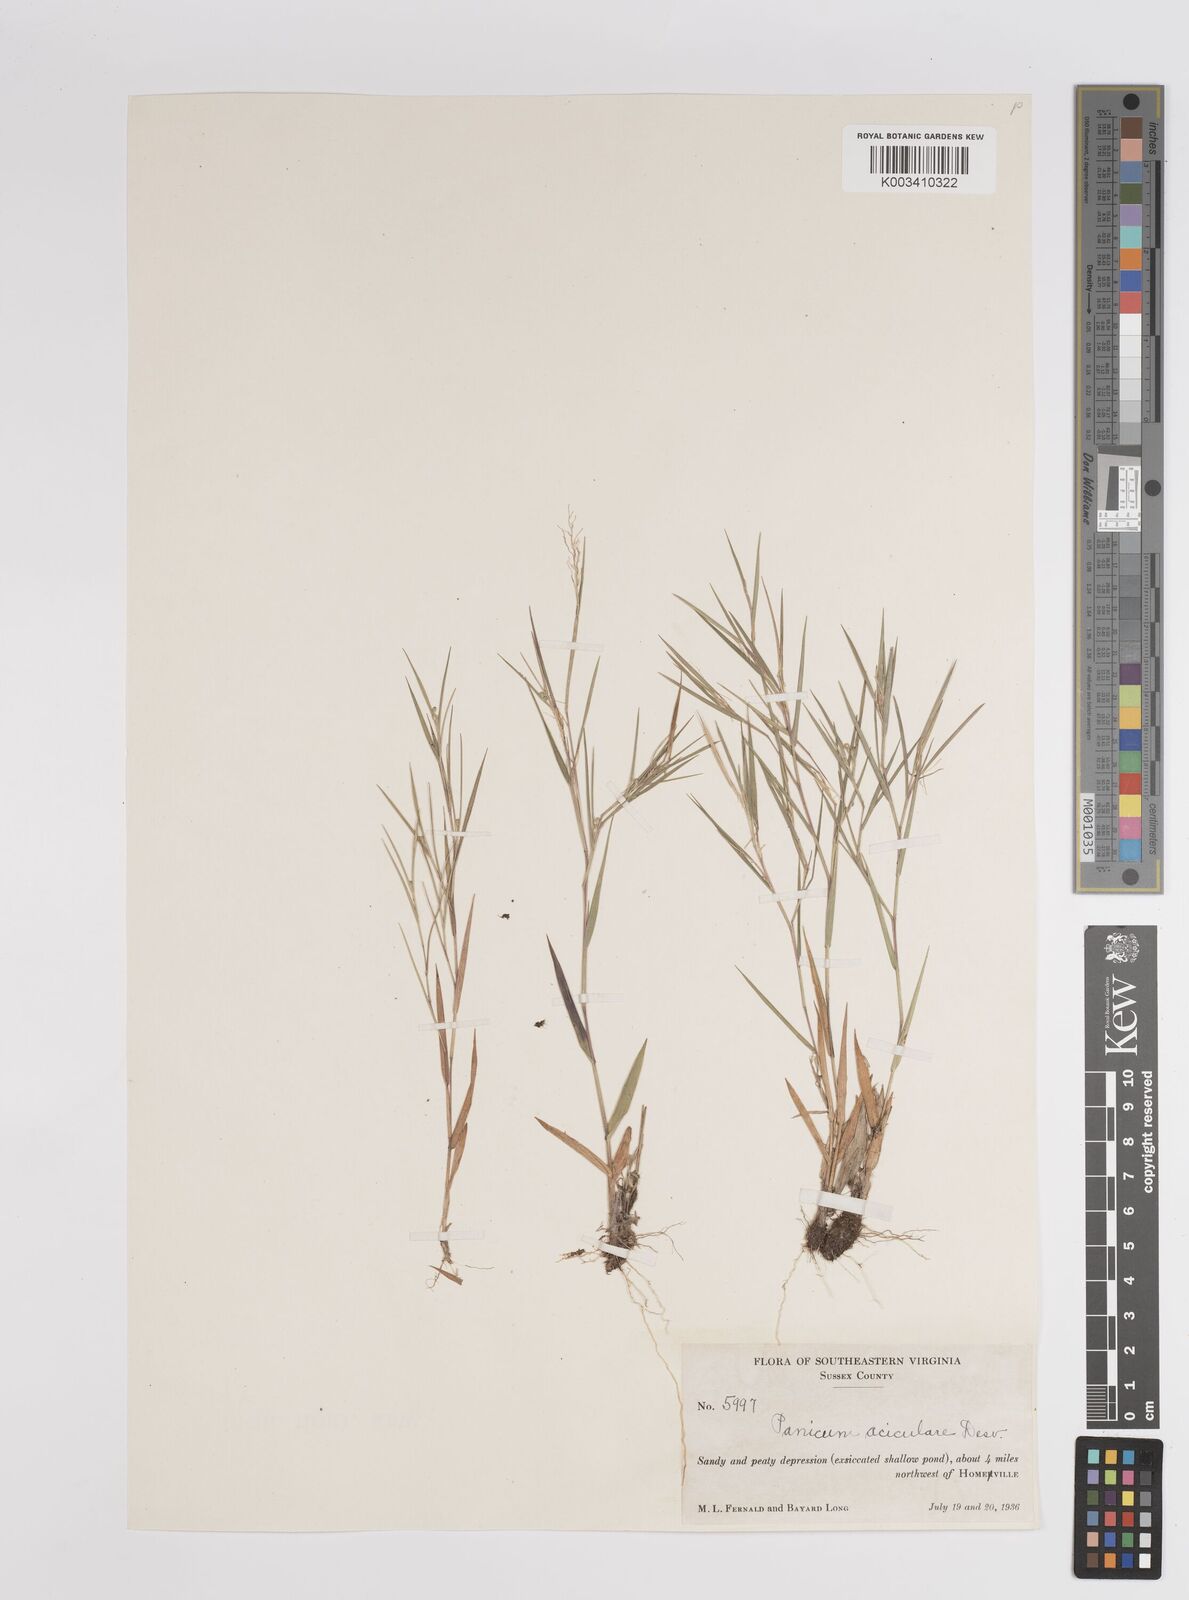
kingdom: Plantae
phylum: Tracheophyta
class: Liliopsida
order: Poales
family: Poaceae
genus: Dichanthelium
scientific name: Dichanthelium aciculare
